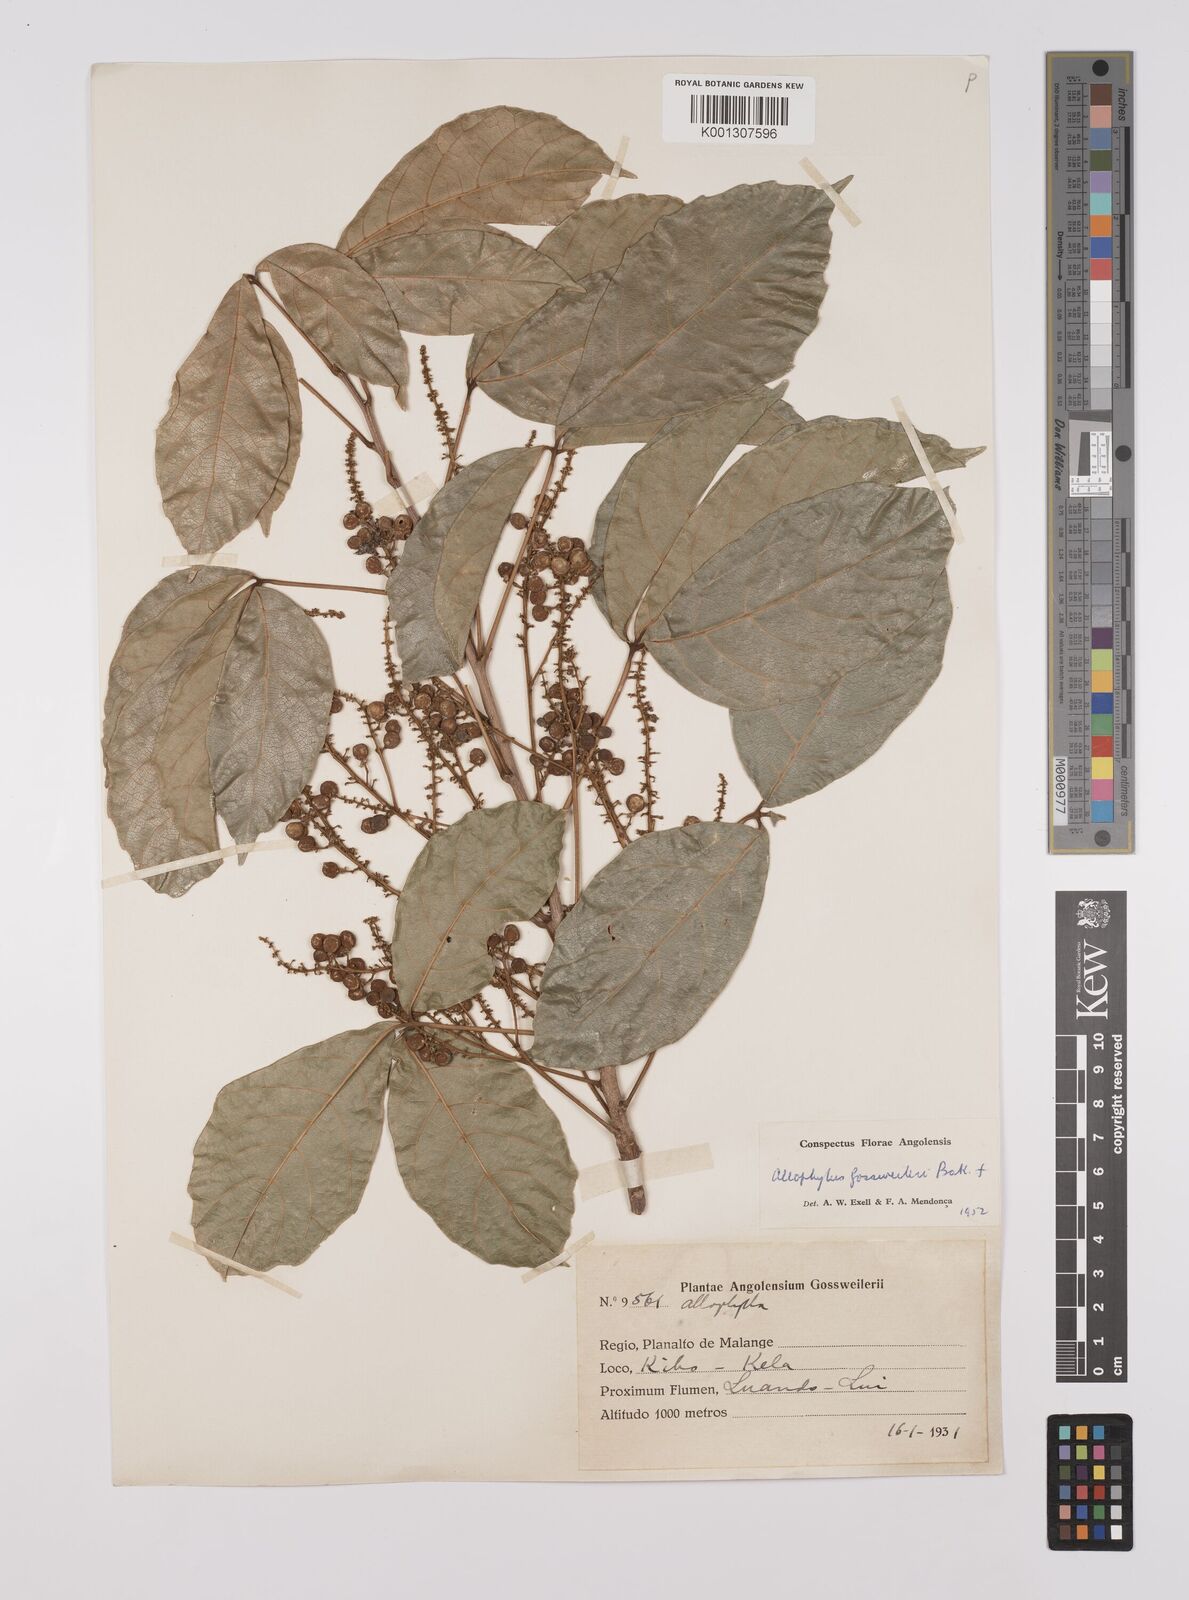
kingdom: Plantae
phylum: Tracheophyta
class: Magnoliopsida
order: Sapindales
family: Sapindaceae
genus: Allophylus
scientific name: Allophylus gossweileri
